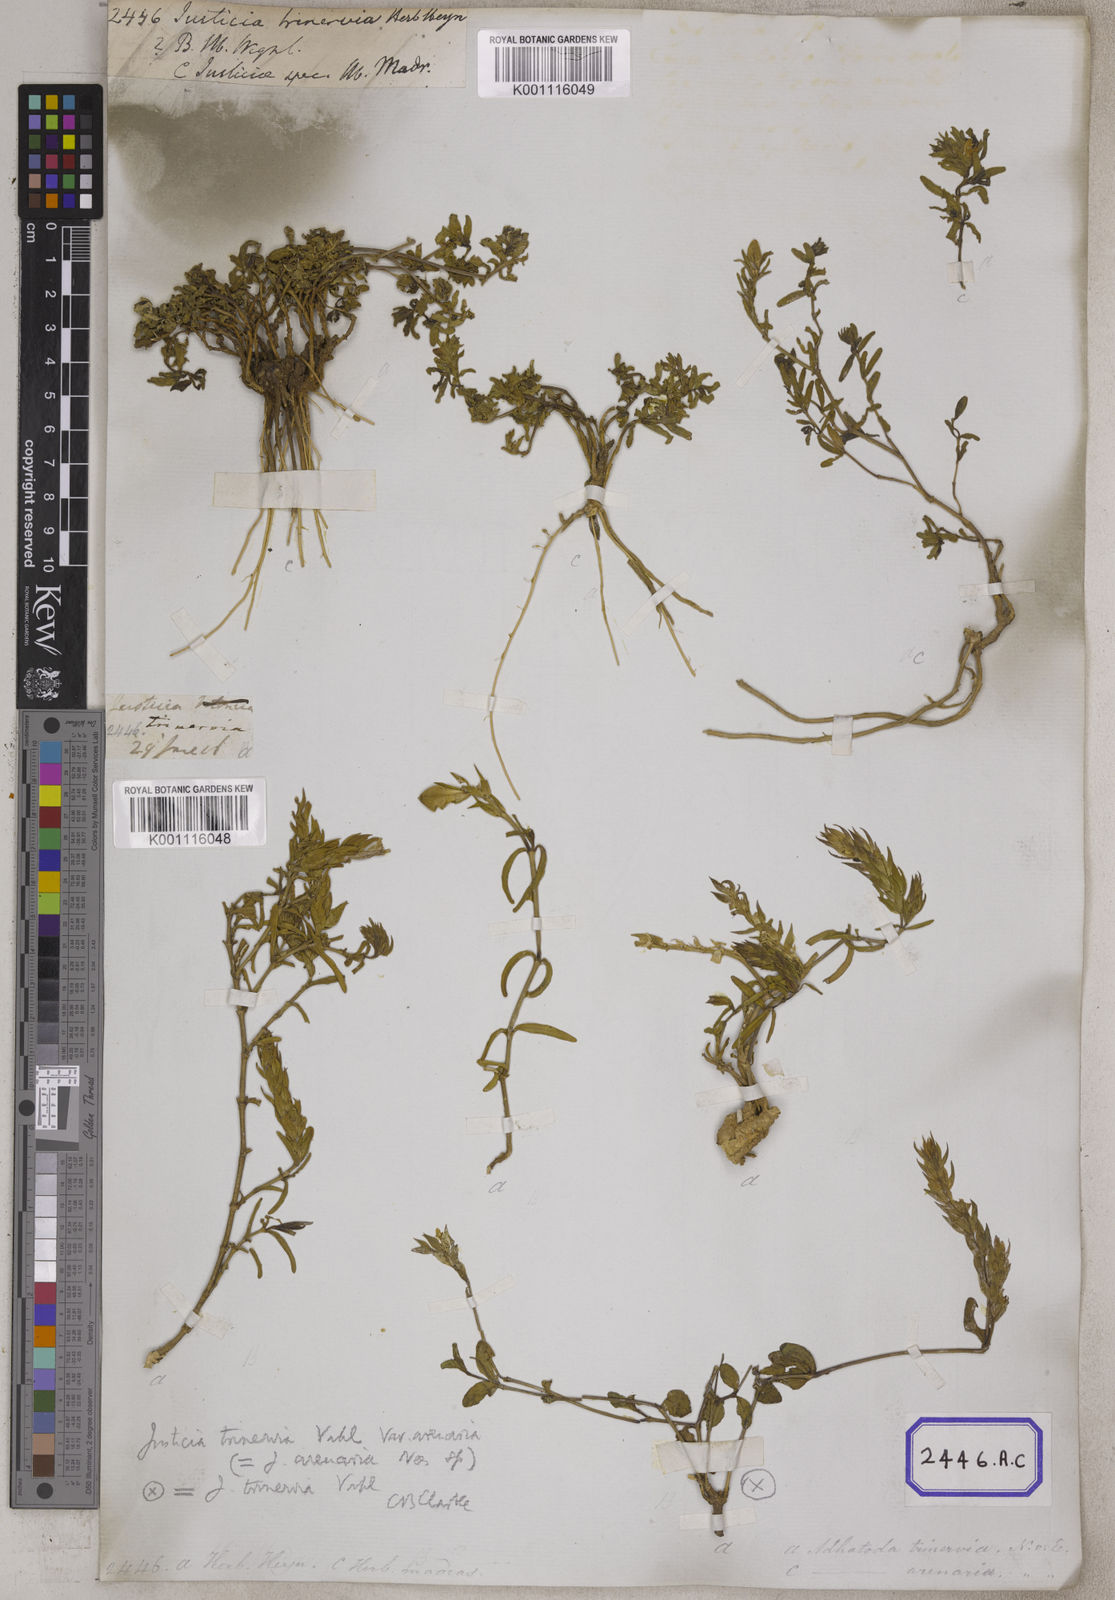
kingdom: Plantae
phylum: Tracheophyta
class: Magnoliopsida
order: Lamiales
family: Acanthaceae
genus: Nicoteba
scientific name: Nicoteba trinervia
